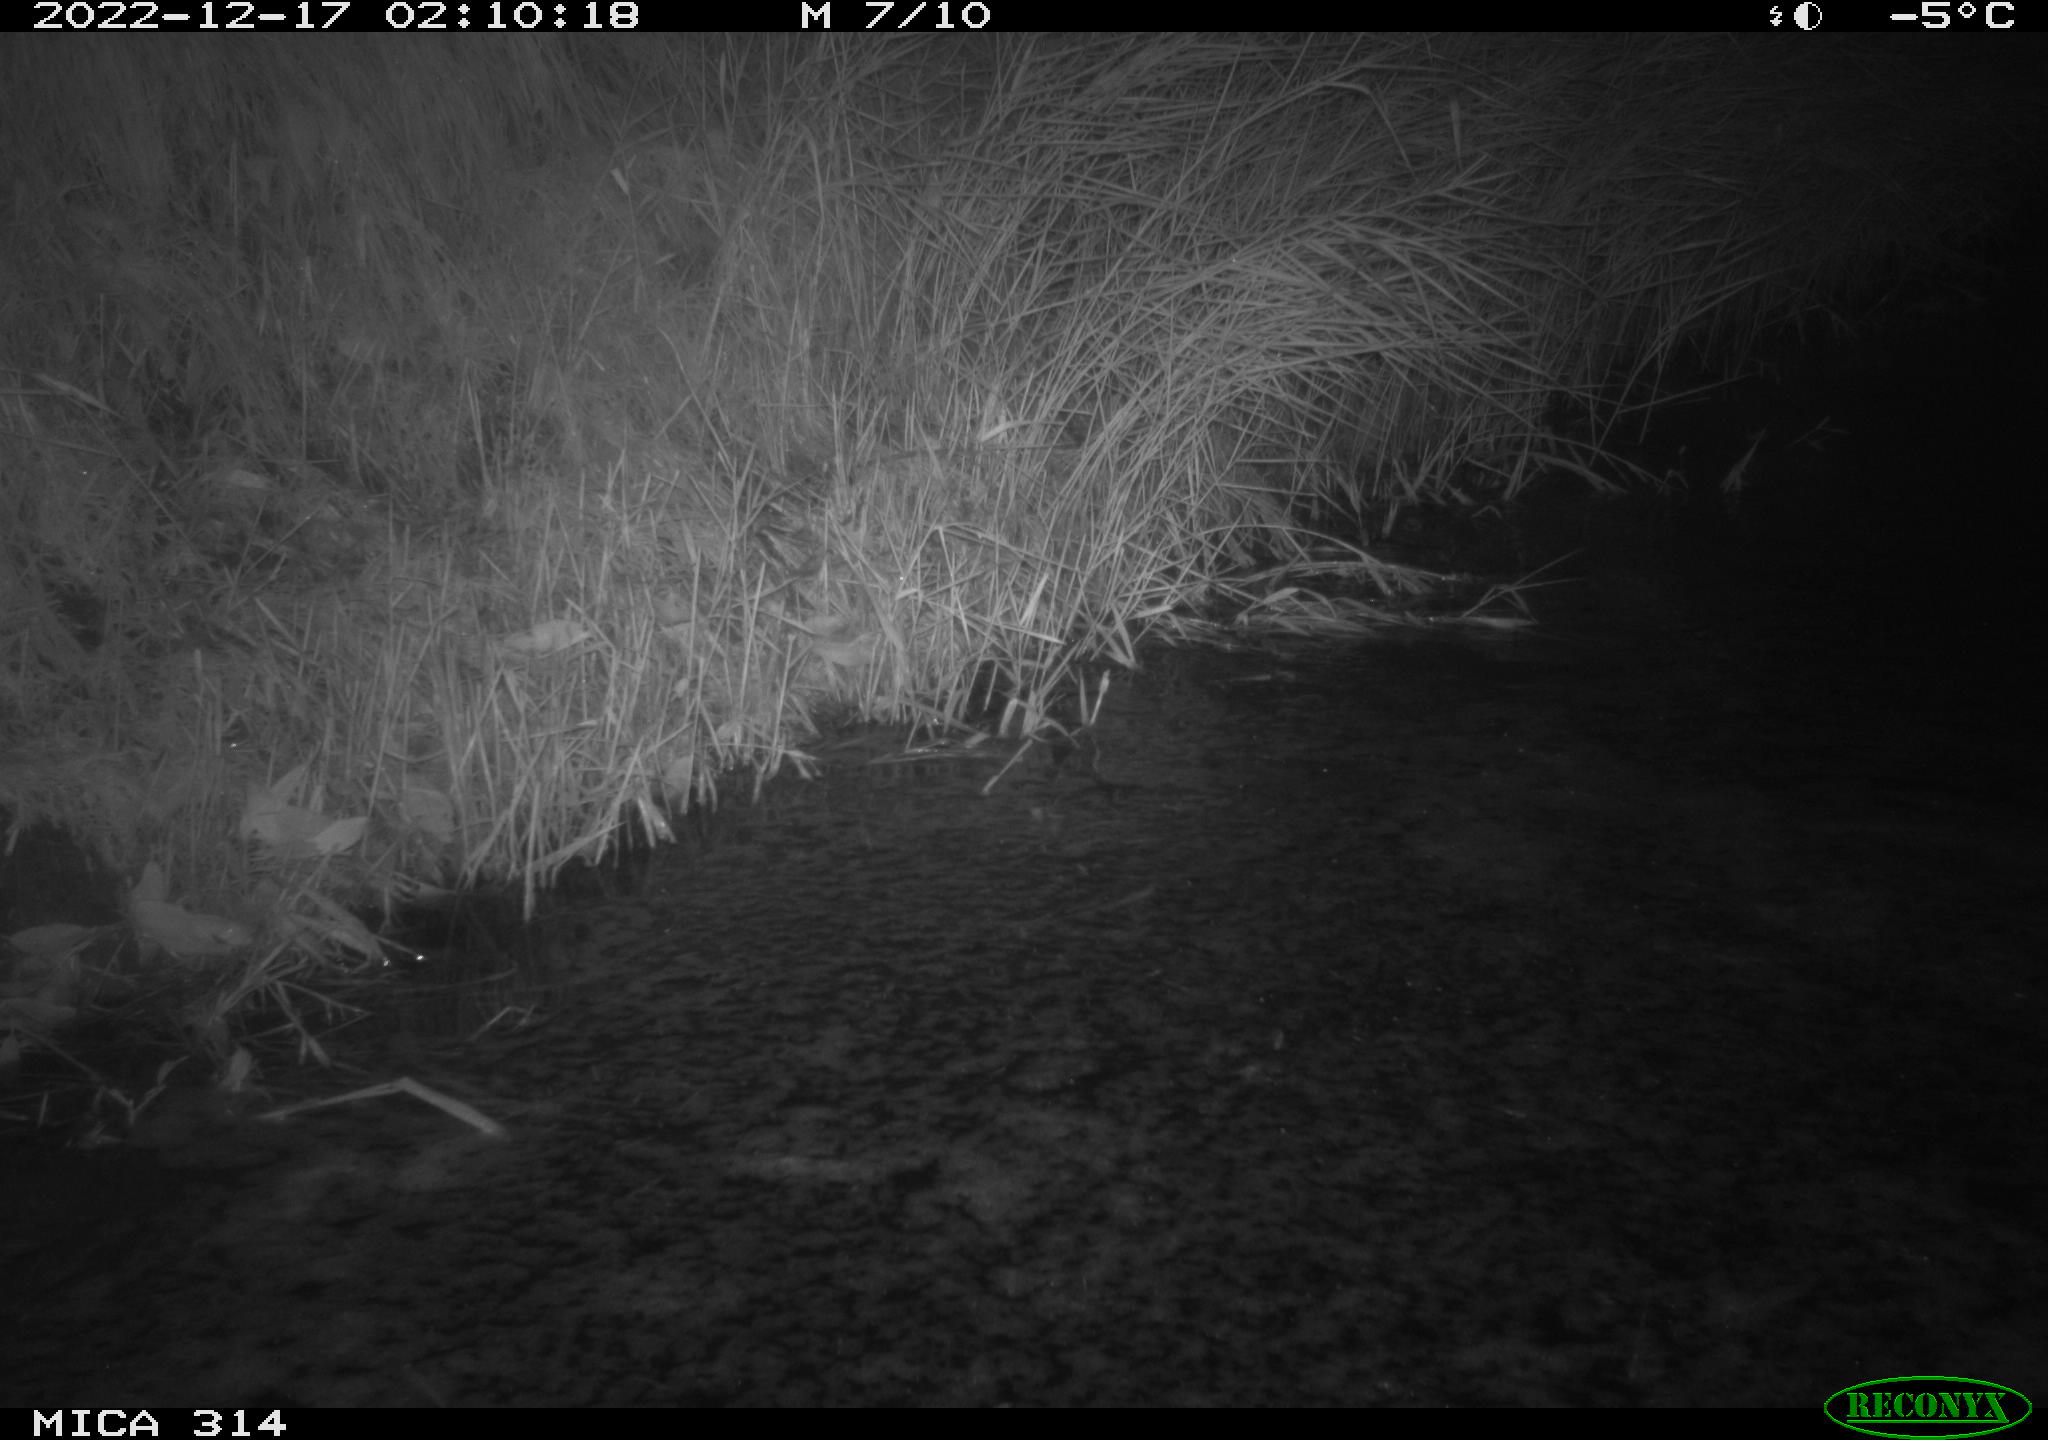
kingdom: Animalia
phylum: Chordata
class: Mammalia
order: Rodentia
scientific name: Rodentia
